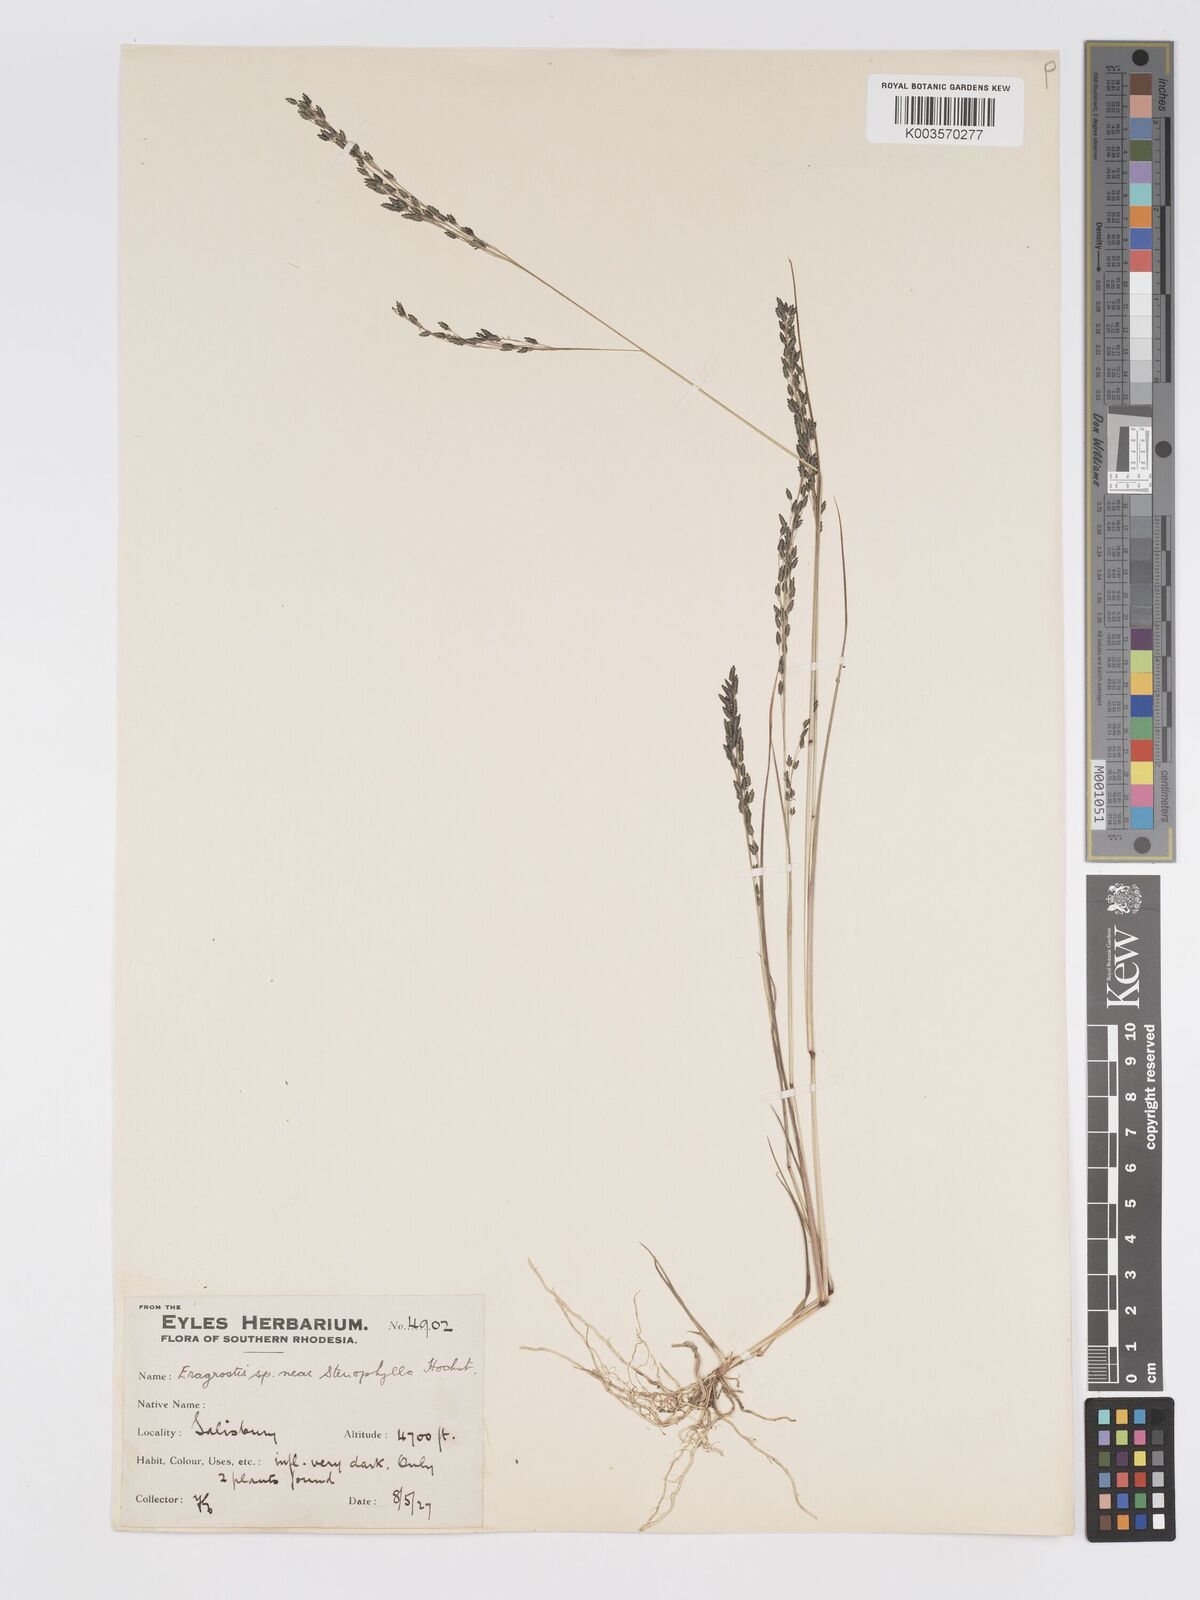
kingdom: Plantae
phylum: Tracheophyta
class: Liliopsida
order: Poales
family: Poaceae
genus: Eragrostis
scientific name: Eragrostis gangetica
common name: Slimflower lovegrass
